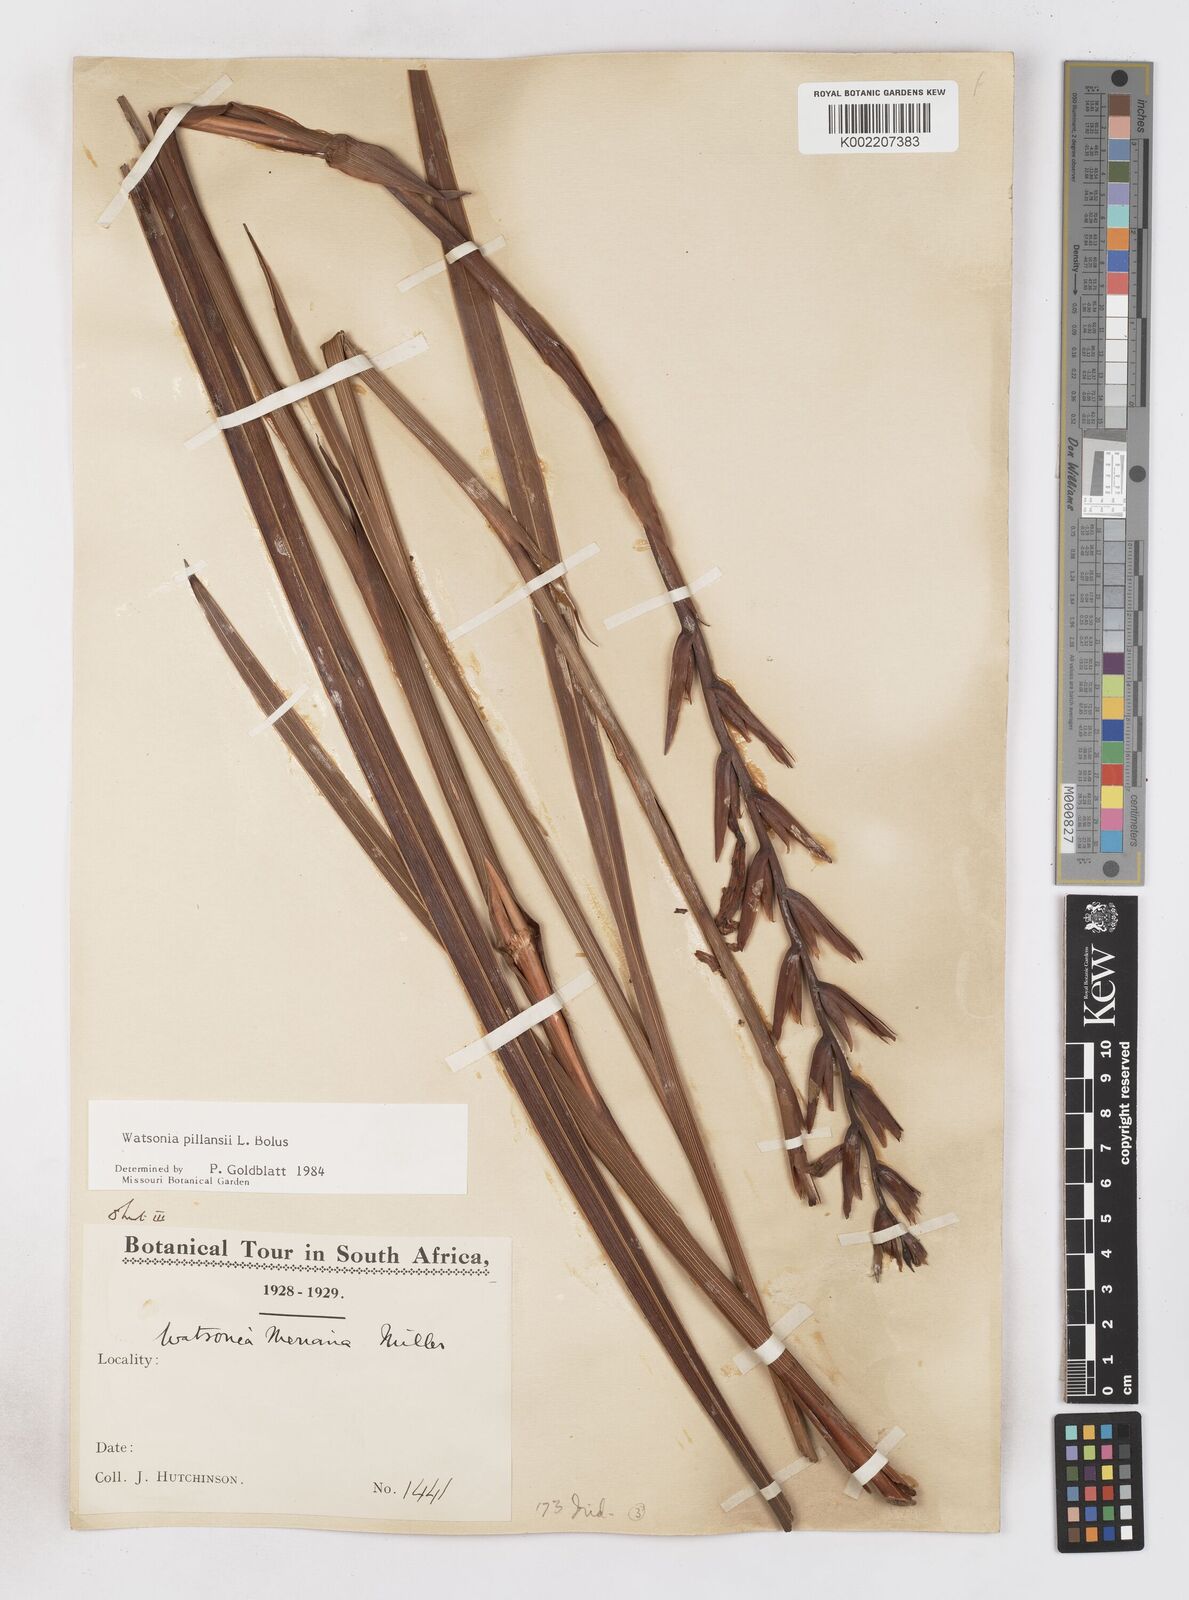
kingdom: Plantae
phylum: Tracheophyta
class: Liliopsida
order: Asparagales
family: Iridaceae
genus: Watsonia
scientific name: Watsonia pillansii
